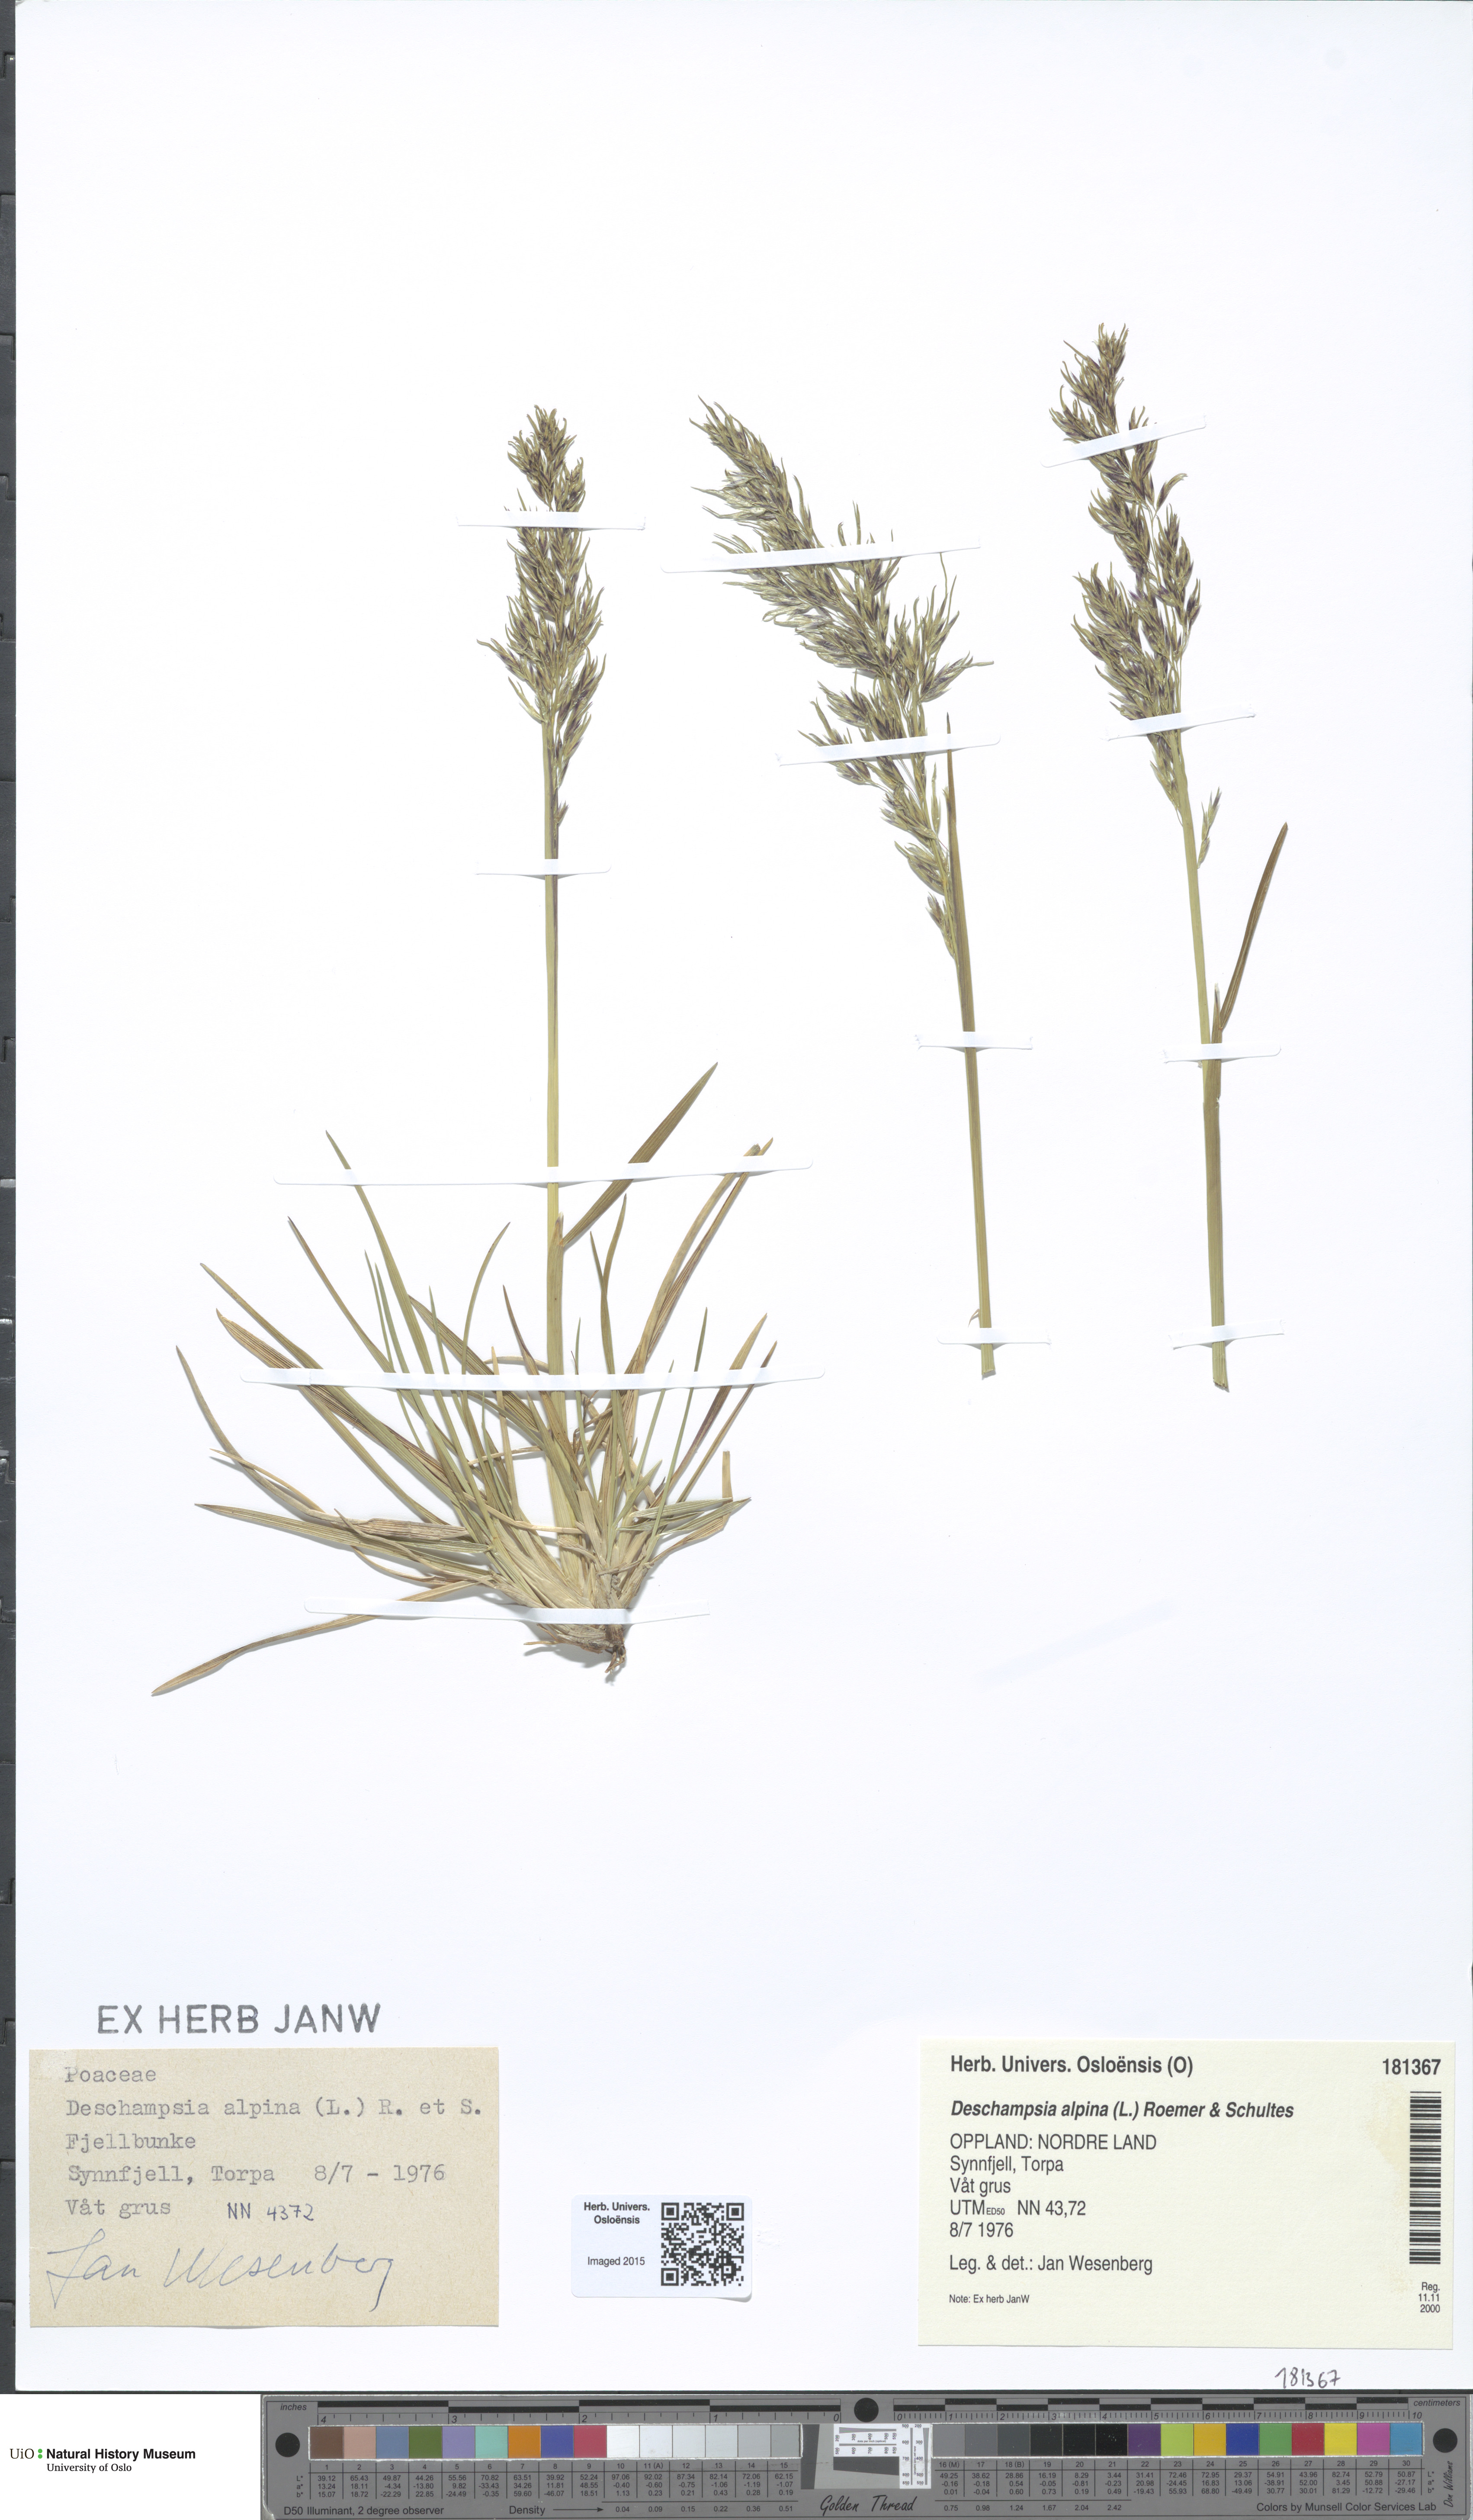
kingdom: Plantae
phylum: Tracheophyta
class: Liliopsida
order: Poales
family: Poaceae
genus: Deschampsia
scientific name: Deschampsia cespitosa
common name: Tufted hair-grass
